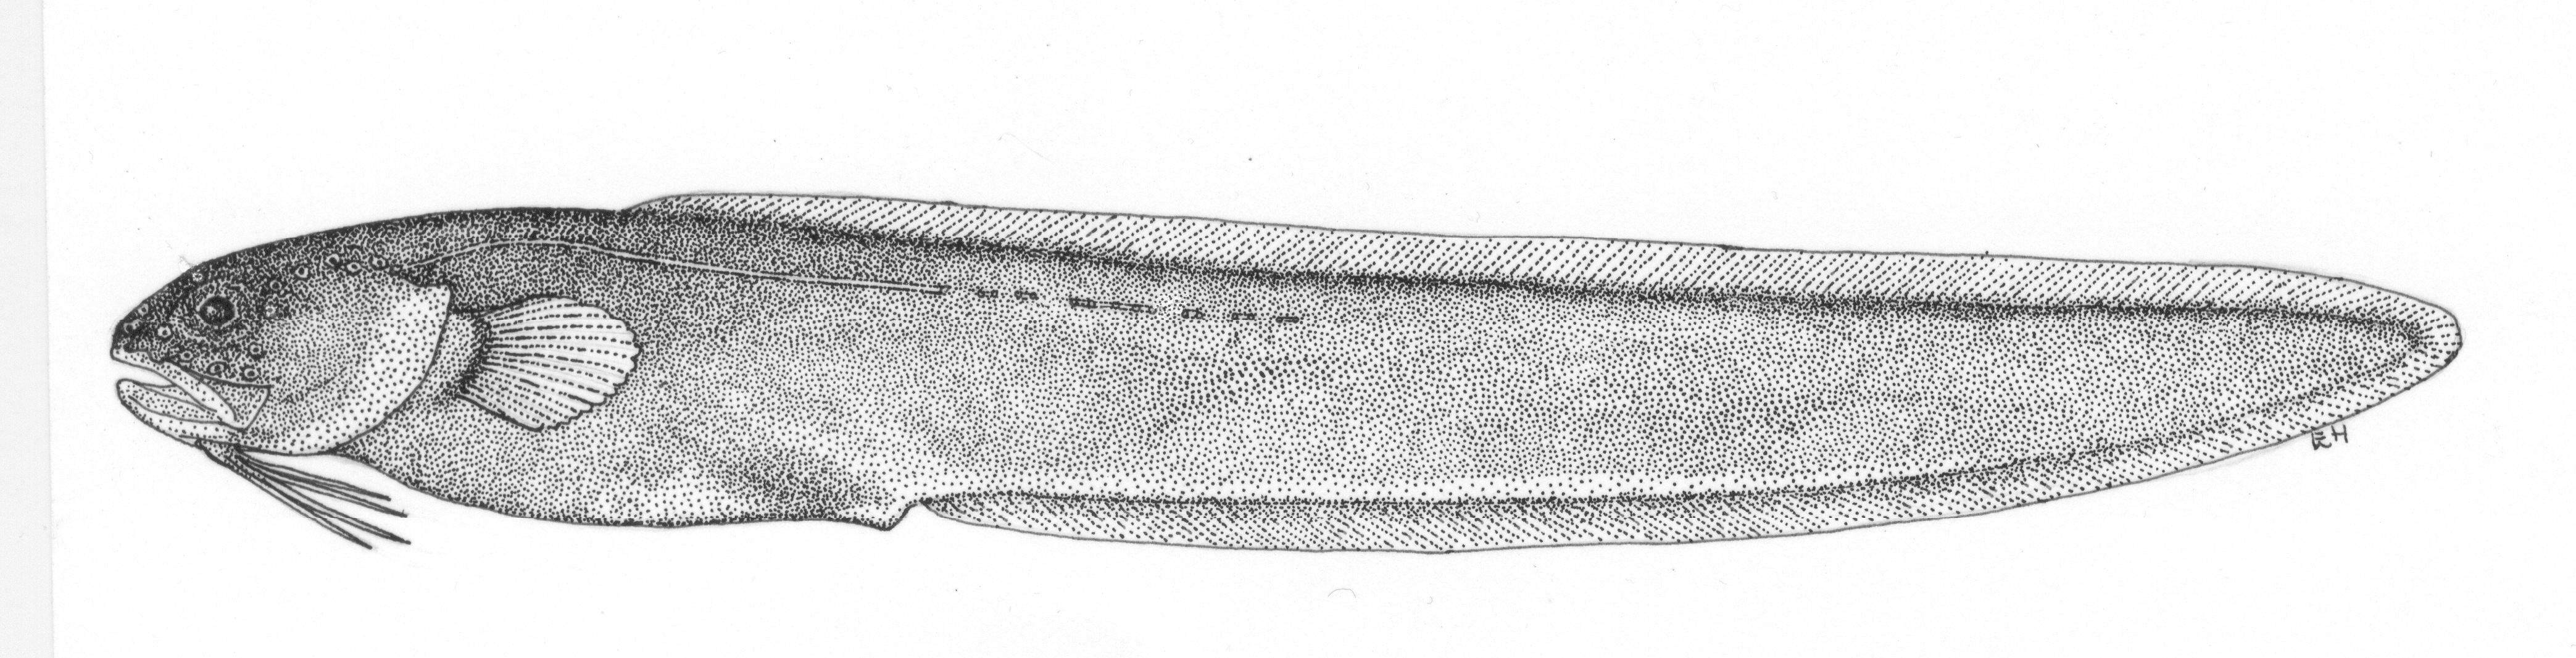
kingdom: Animalia
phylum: Chordata
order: Ophidiiformes
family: Ophidiidae
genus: Parophidion
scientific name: Parophidion vassali
